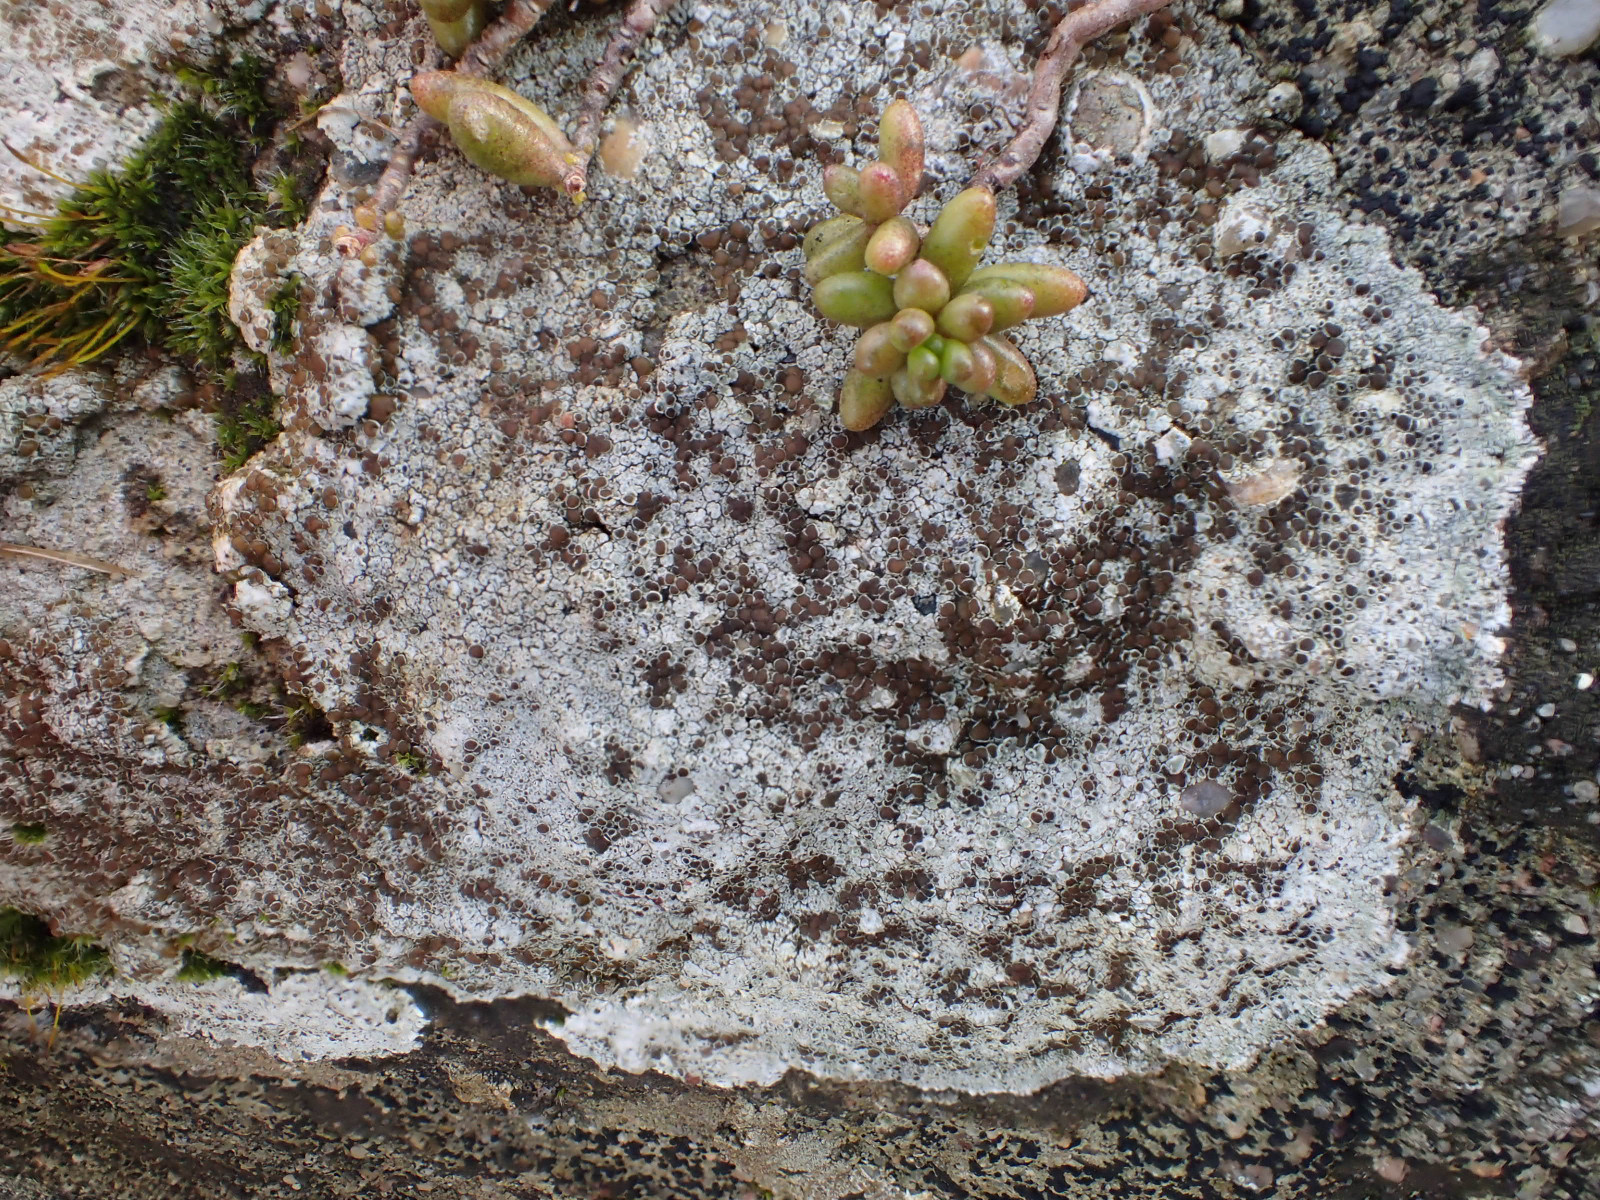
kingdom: Fungi
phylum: Ascomycota
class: Lecanoromycetes
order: Lecanorales
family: Lecanoraceae
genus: Lecanora
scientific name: Lecanora campestris
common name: mur-kantskivelav
